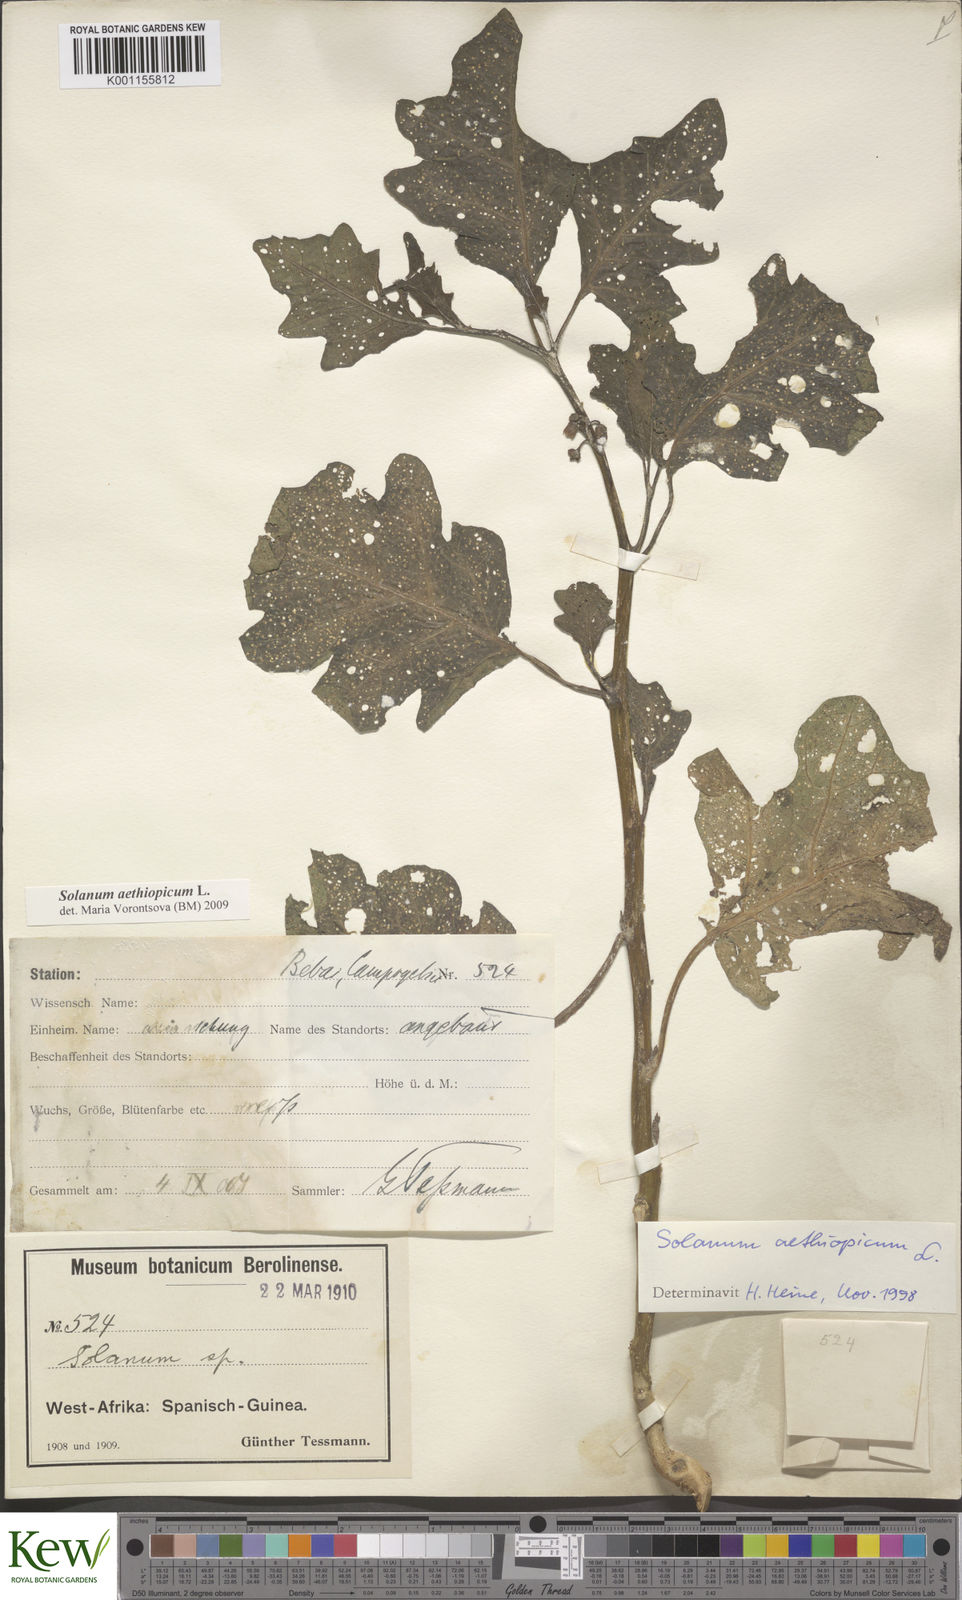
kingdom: Plantae
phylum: Tracheophyta
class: Magnoliopsida
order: Solanales
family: Solanaceae
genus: Solanum
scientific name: Solanum aethiopicum
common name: Gilo
